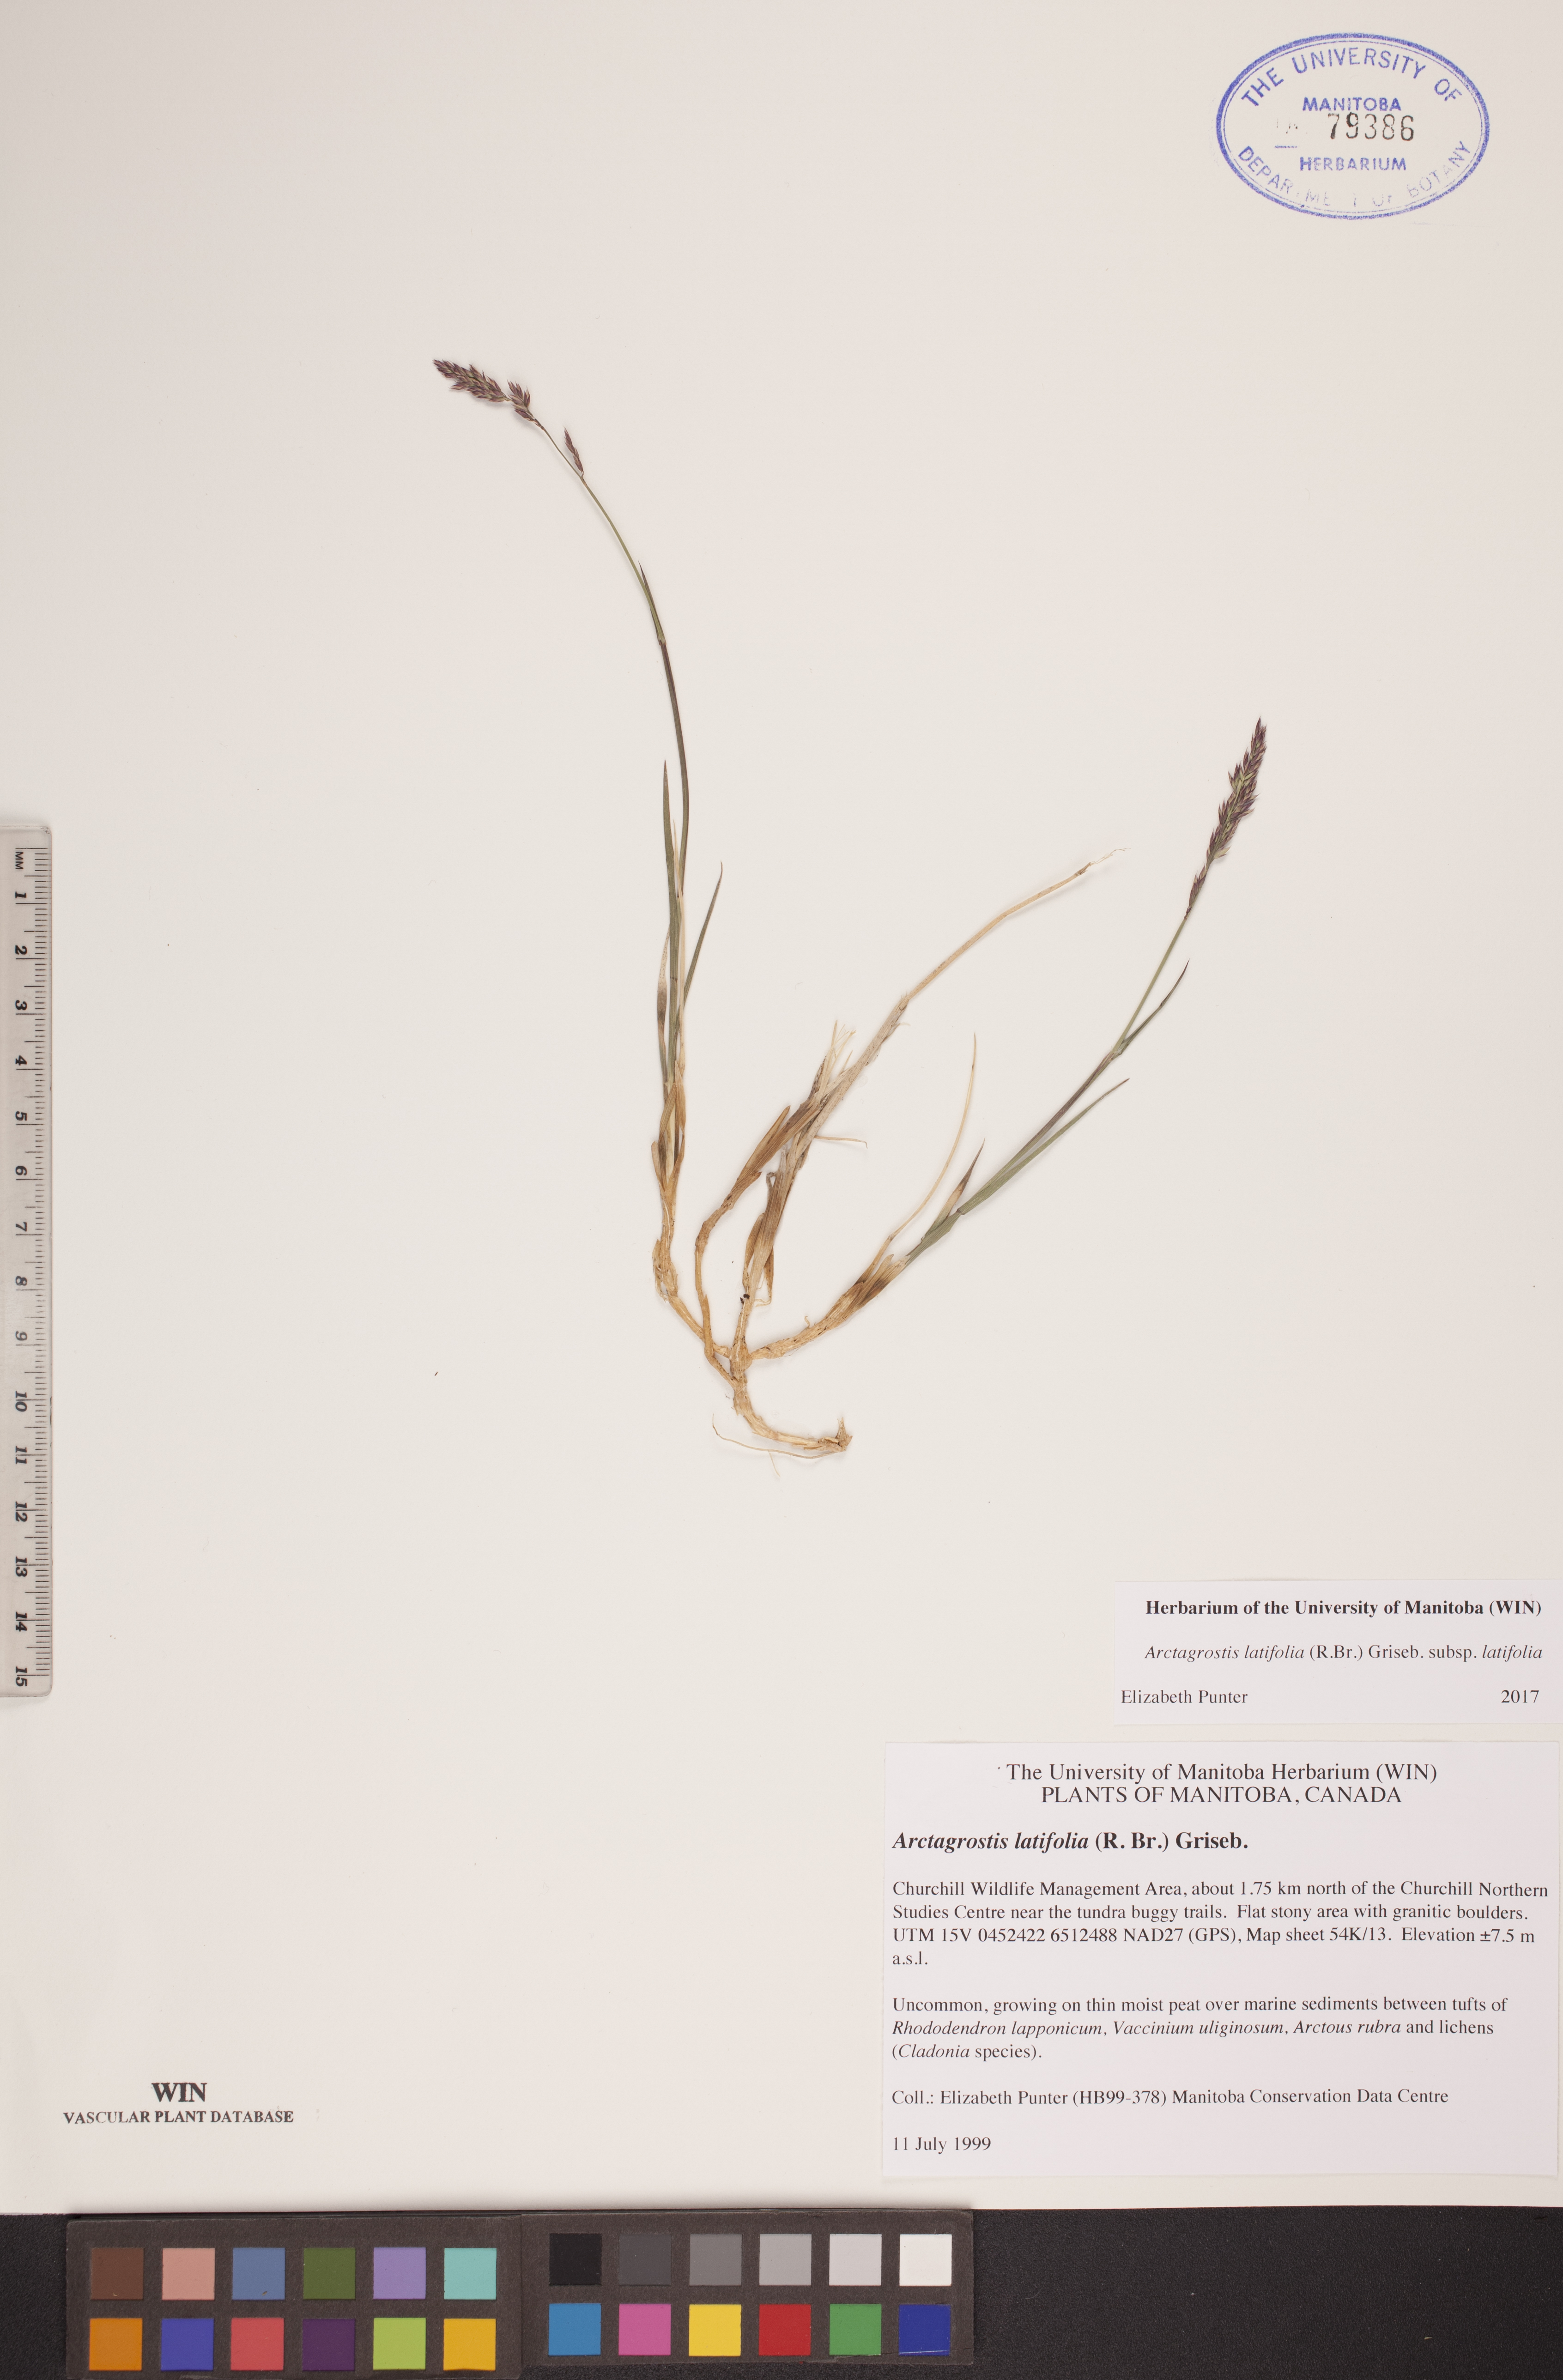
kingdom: Plantae
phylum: Tracheophyta
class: Liliopsida
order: Poales
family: Poaceae
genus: Arctagrostis
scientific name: Arctagrostis latifolia
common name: Arctic grass
